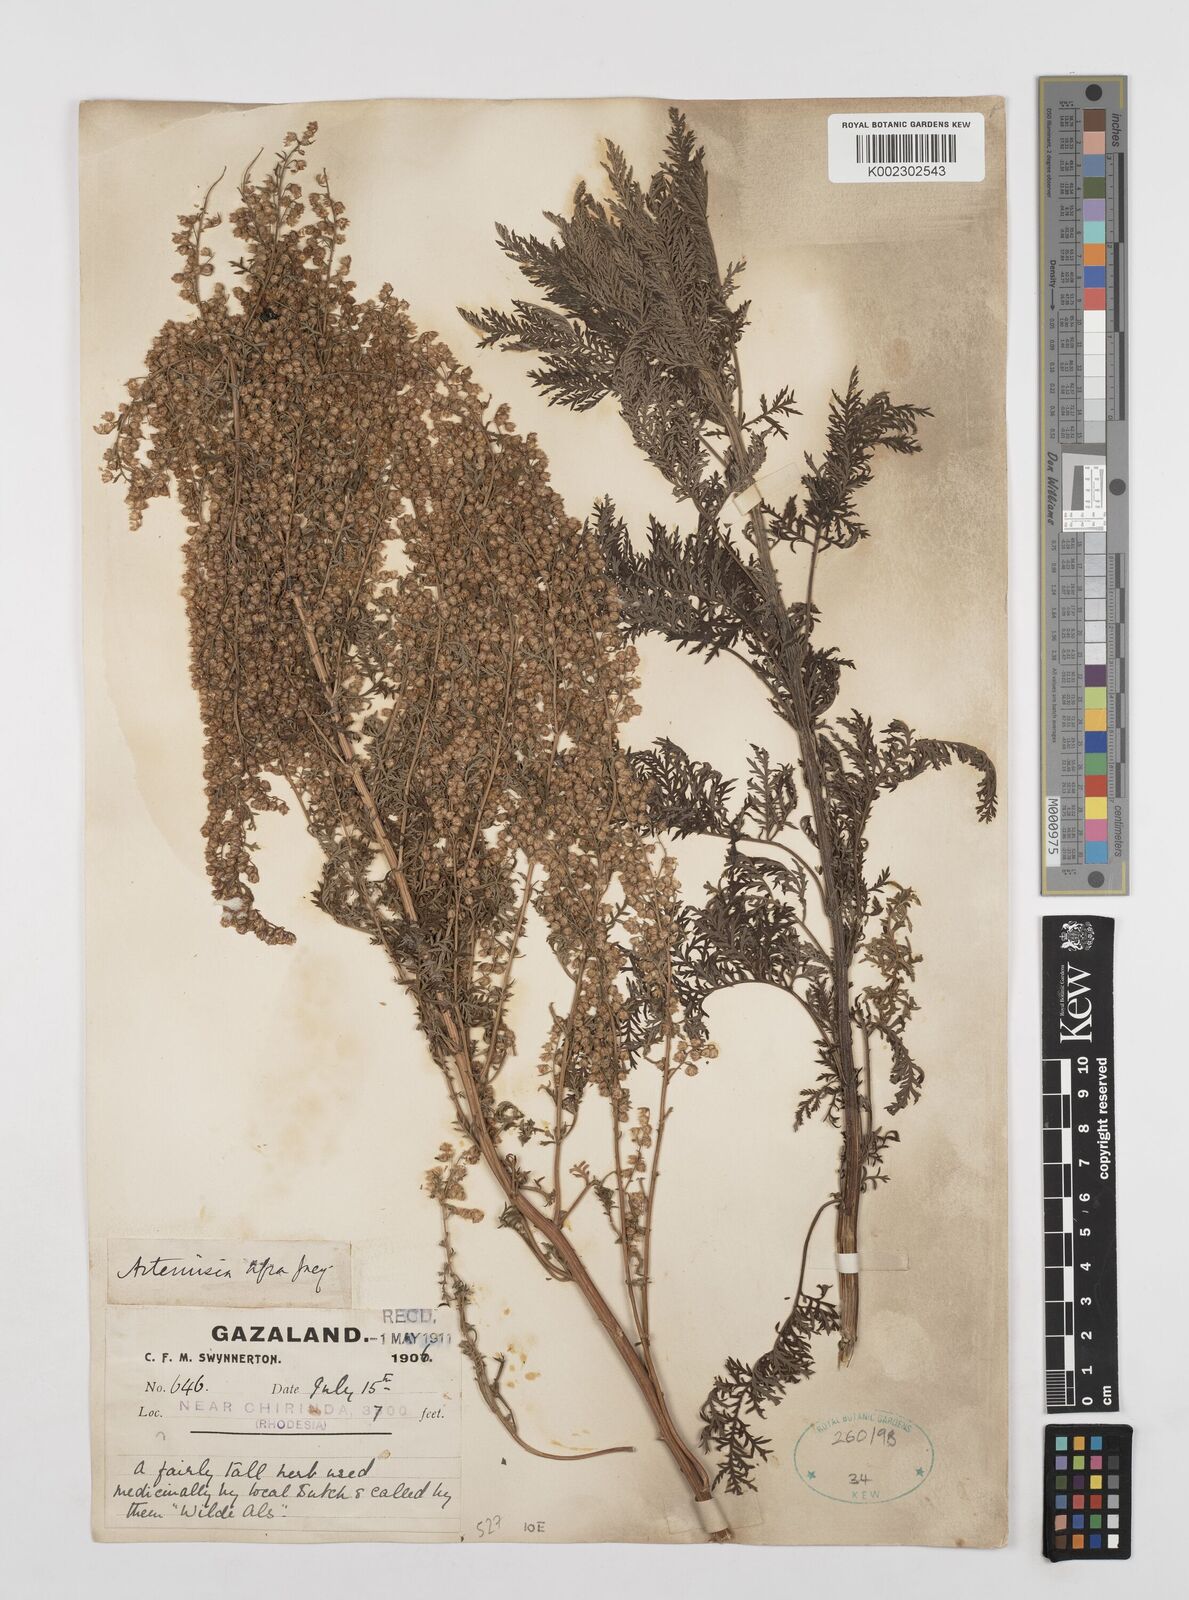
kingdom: Plantae
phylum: Tracheophyta
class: Magnoliopsida
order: Asterales
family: Asteraceae
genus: Artemisia
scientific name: Artemisia afra
